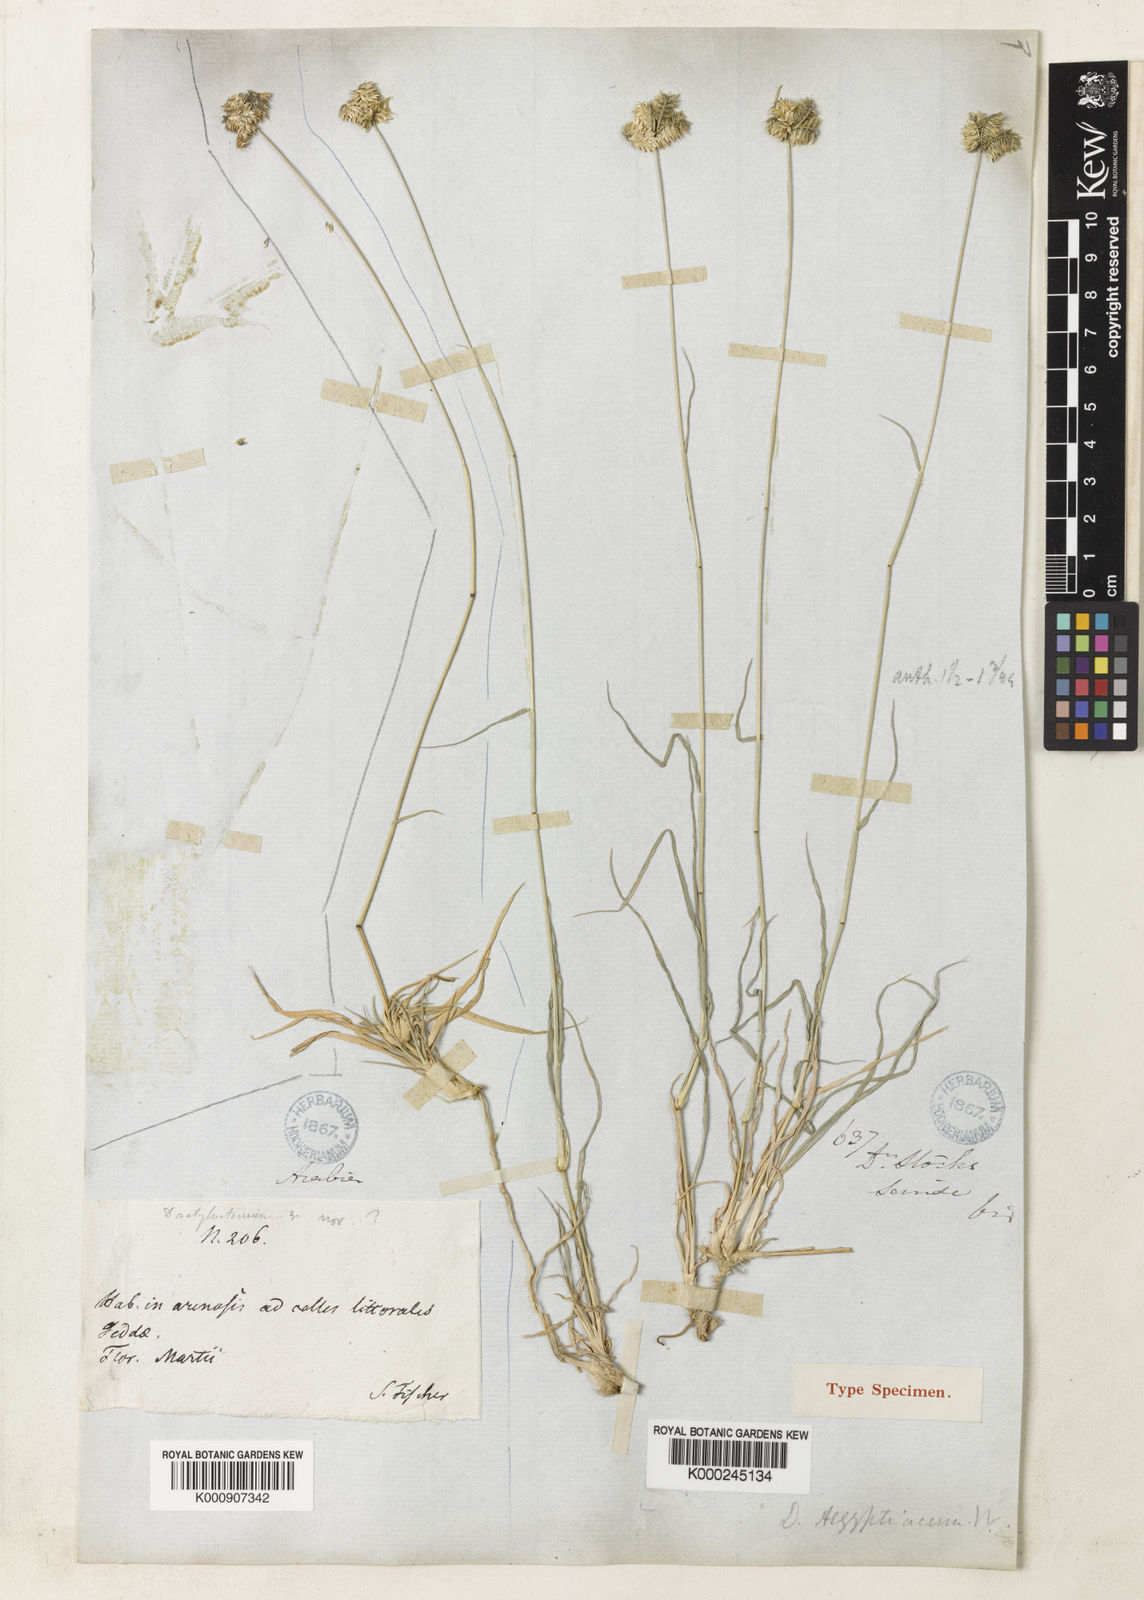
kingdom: Plantae
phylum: Tracheophyta
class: Liliopsida
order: Poales
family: Poaceae
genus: Dactyloctenium
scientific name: Dactyloctenium scindicum
